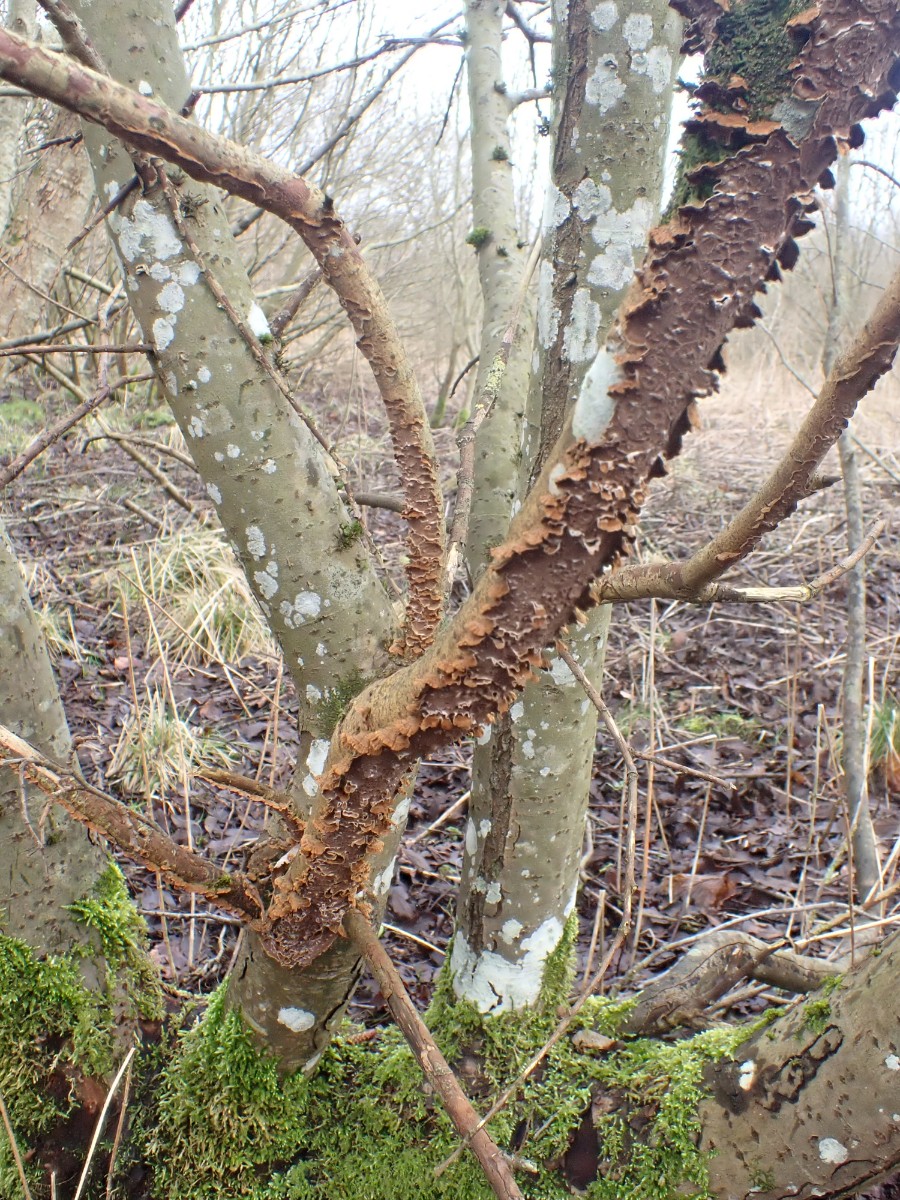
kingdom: Fungi
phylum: Basidiomycota
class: Agaricomycetes
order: Hymenochaetales
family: Hymenochaetaceae
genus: Hydnoporia
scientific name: Hydnoporia tabacina
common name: tobaksbrun ruslædersvamp
